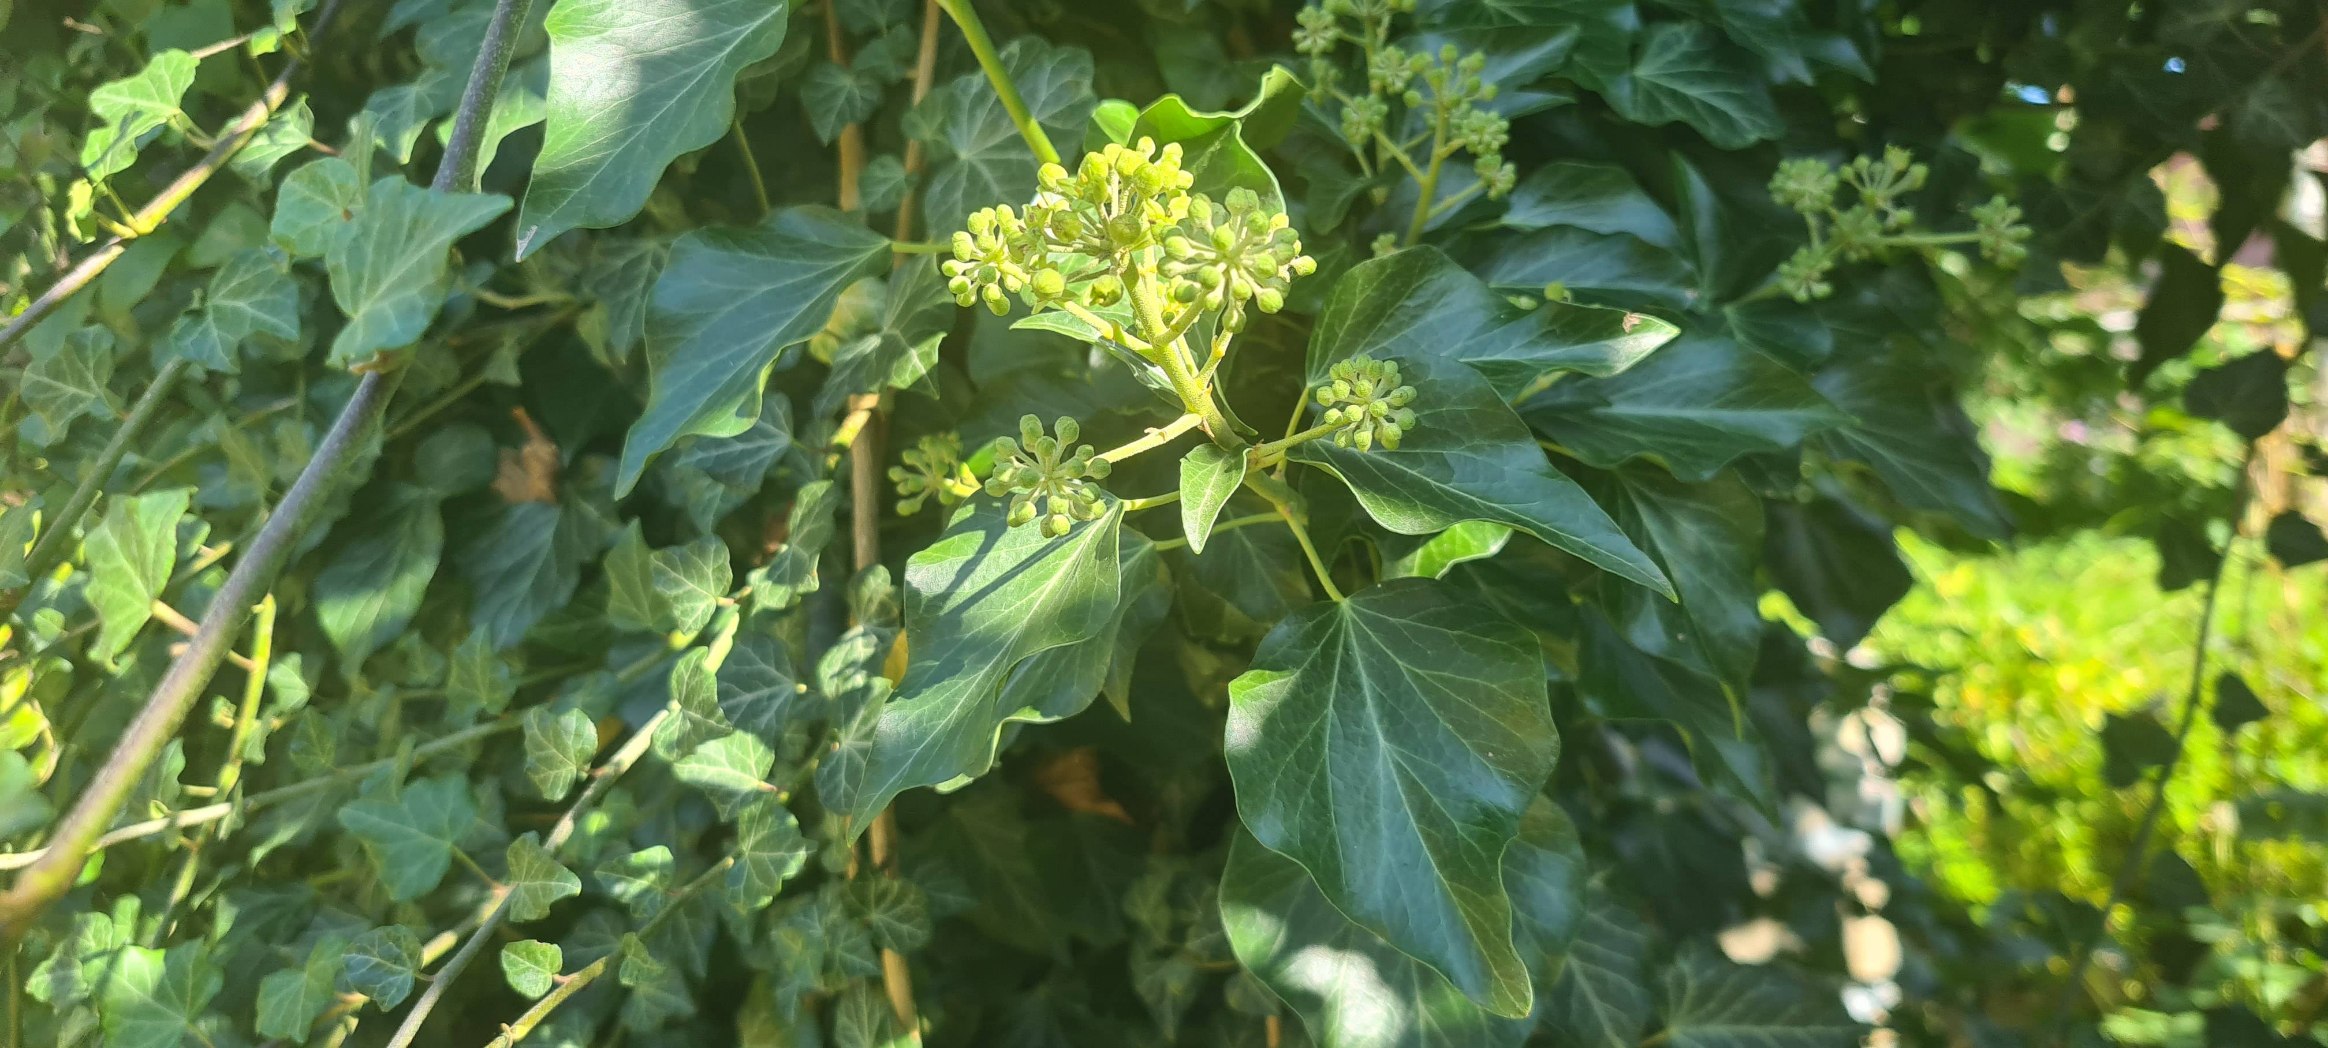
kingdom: Plantae
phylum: Tracheophyta
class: Magnoliopsida
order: Apiales
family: Araliaceae
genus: Hedera
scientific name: Hedera helix
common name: Vedbend
